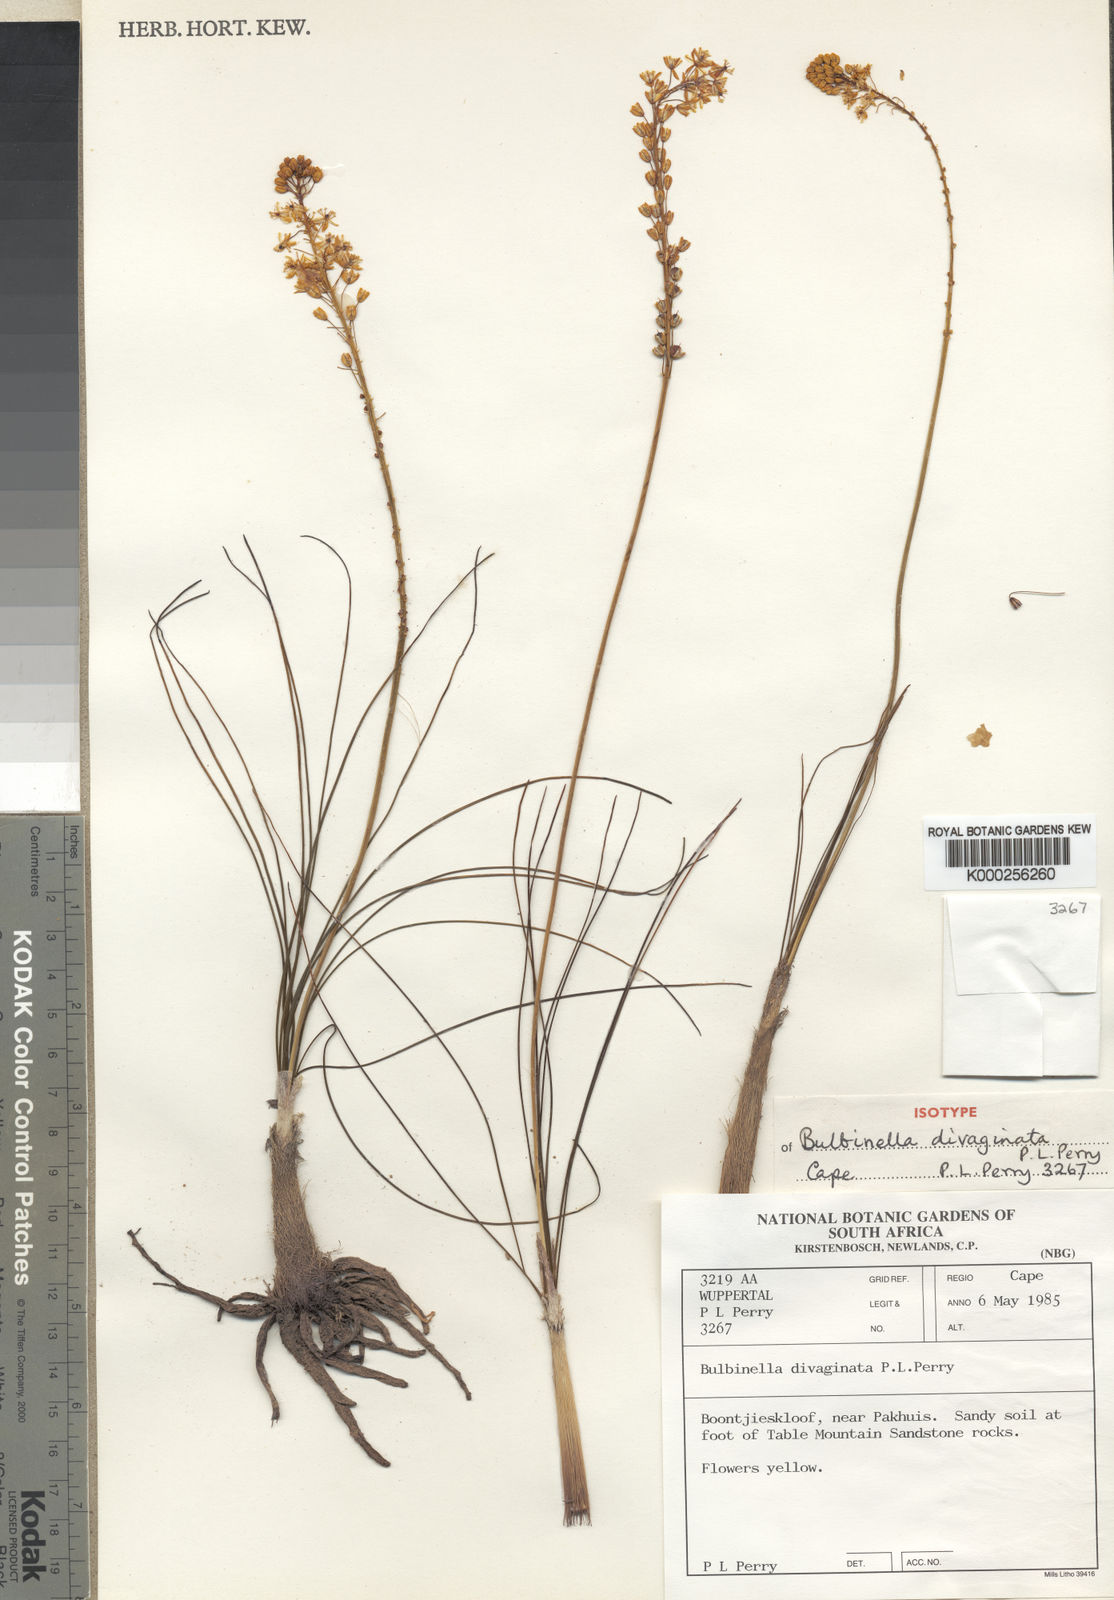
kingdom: Plantae
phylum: Tracheophyta
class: Liliopsida
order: Asparagales
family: Asphodelaceae
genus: Bulbinella
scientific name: Bulbinella divaginata
